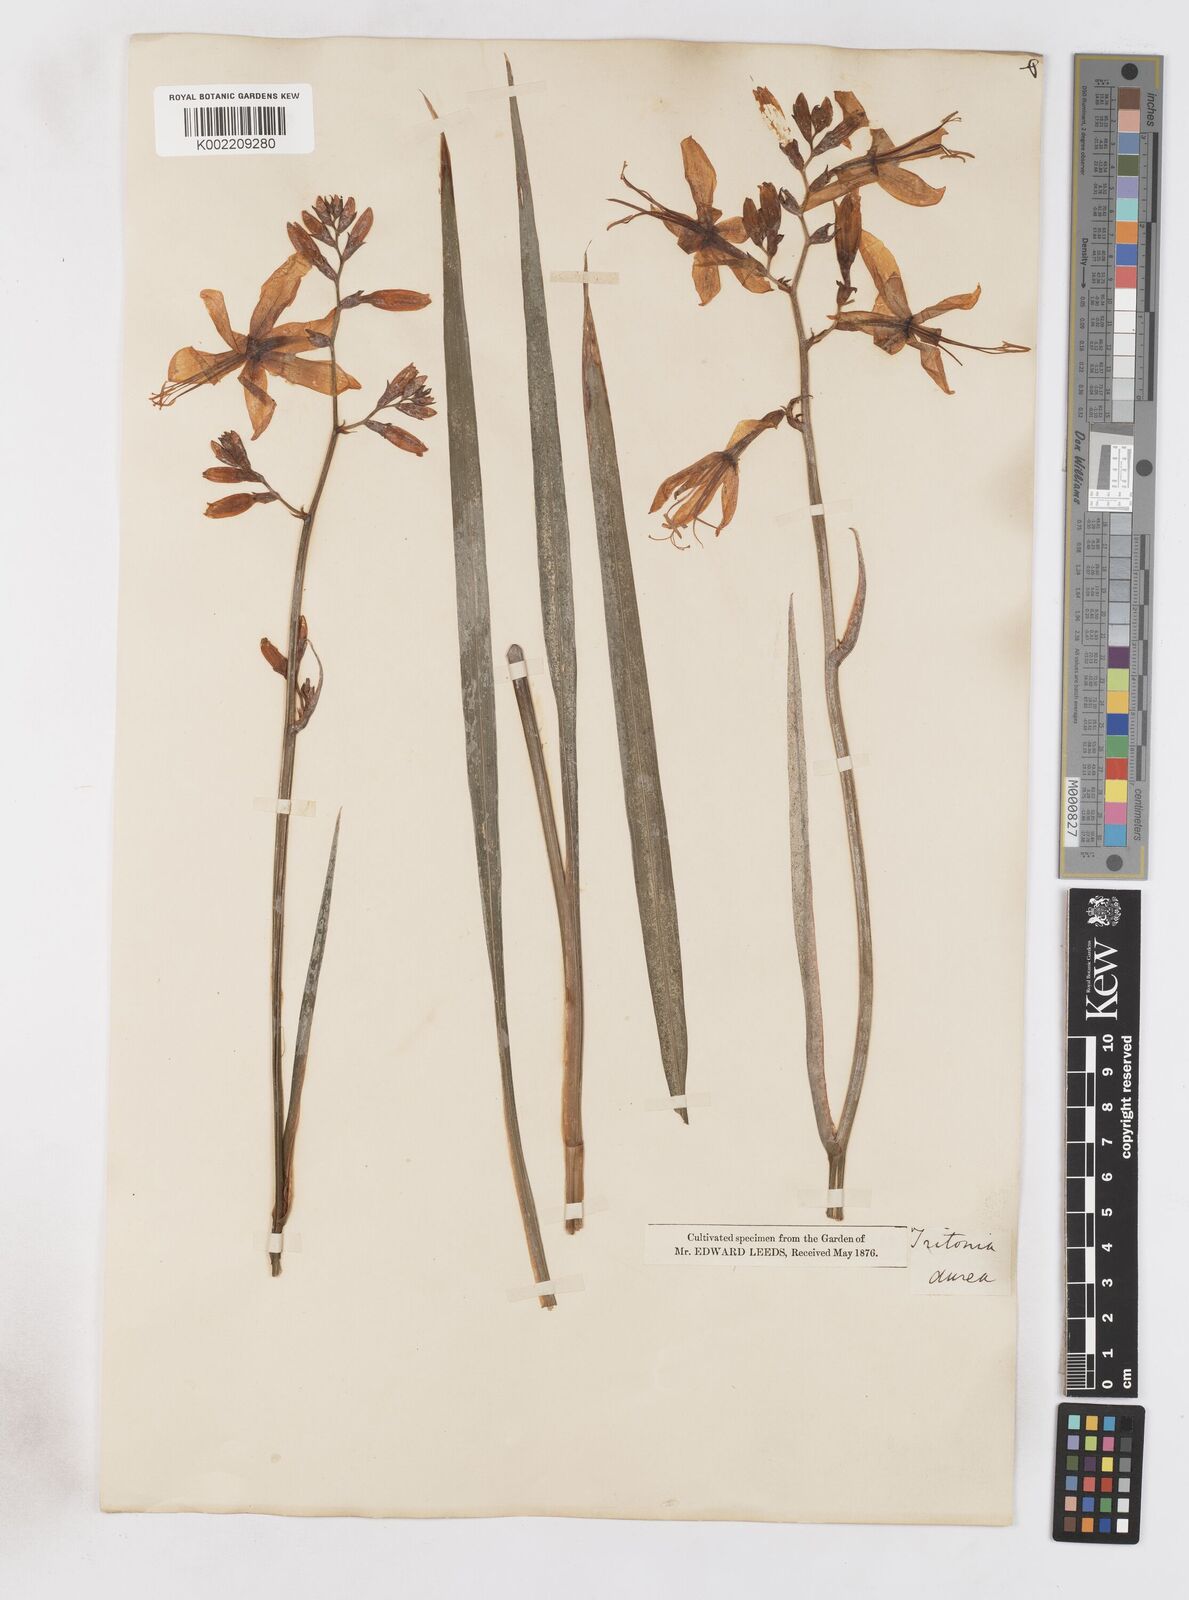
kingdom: Plantae
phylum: Tracheophyta
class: Liliopsida
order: Asparagales
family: Iridaceae
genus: Crocosmia
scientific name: Crocosmia aurea
